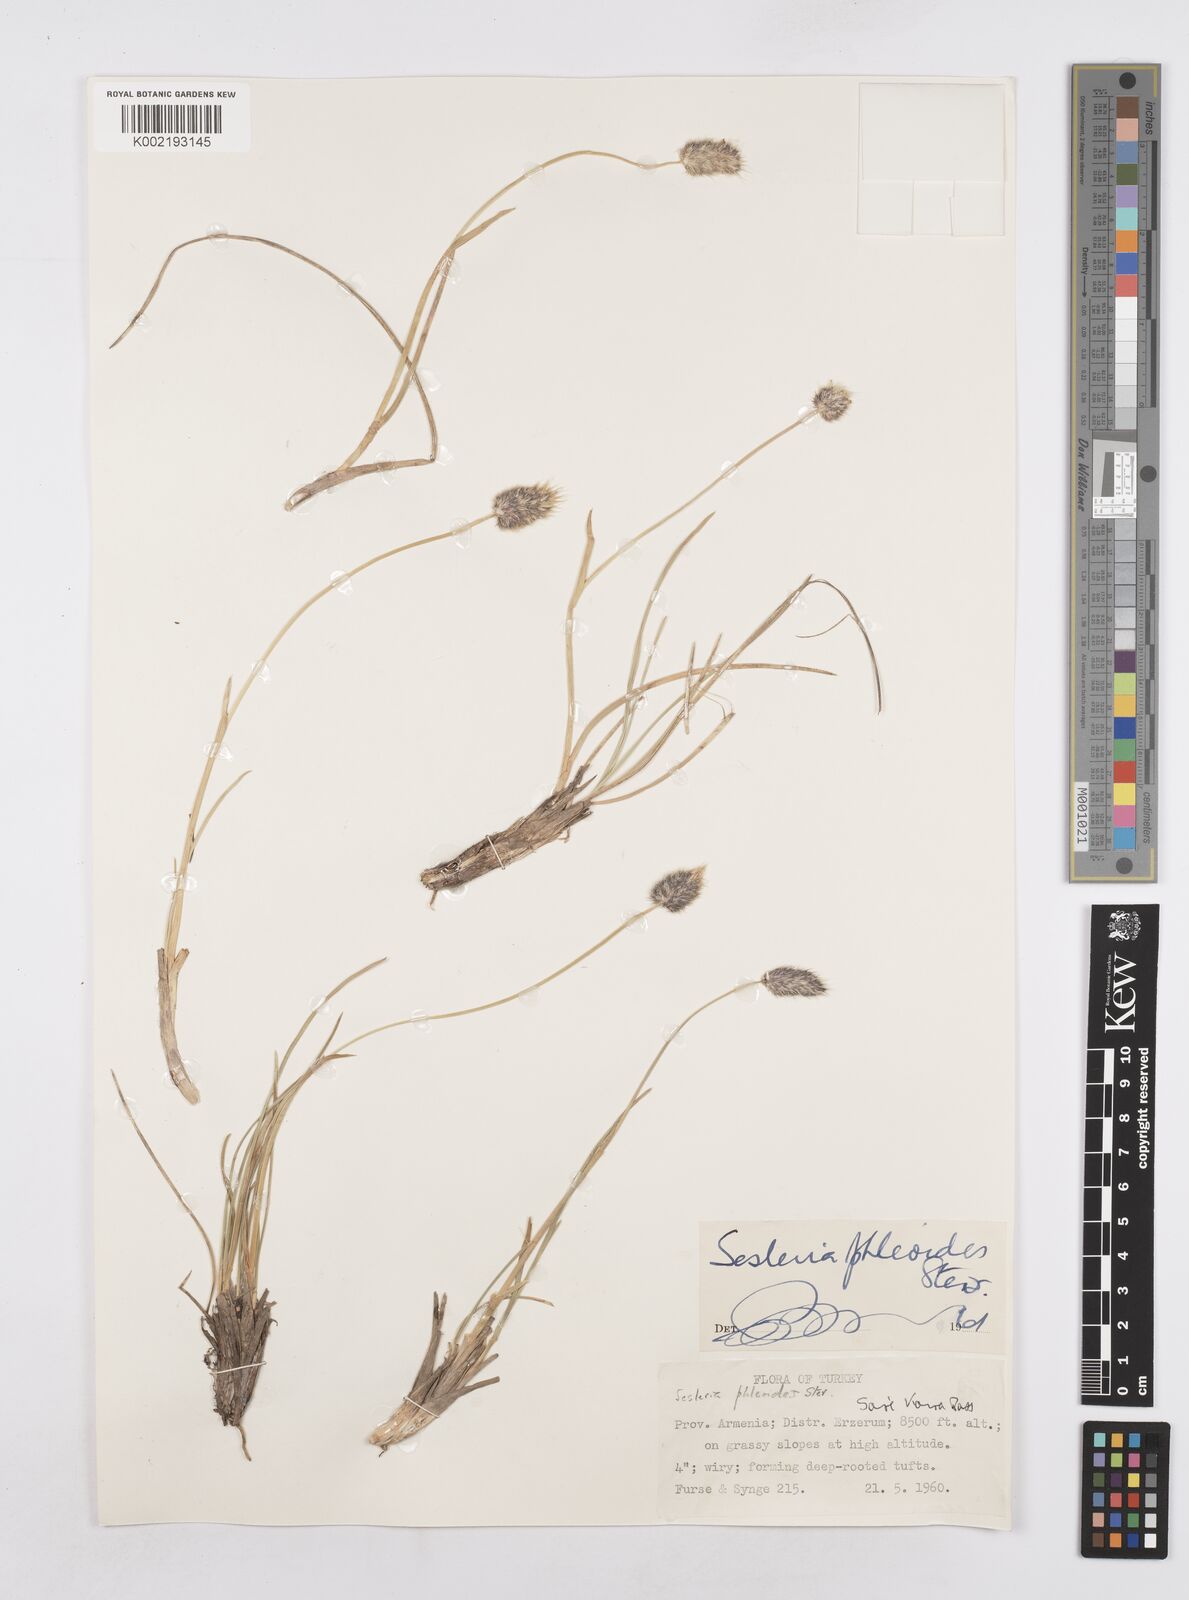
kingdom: Plantae
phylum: Tracheophyta
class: Liliopsida
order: Poales
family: Poaceae
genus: Sesleria
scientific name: Sesleria phleoides
